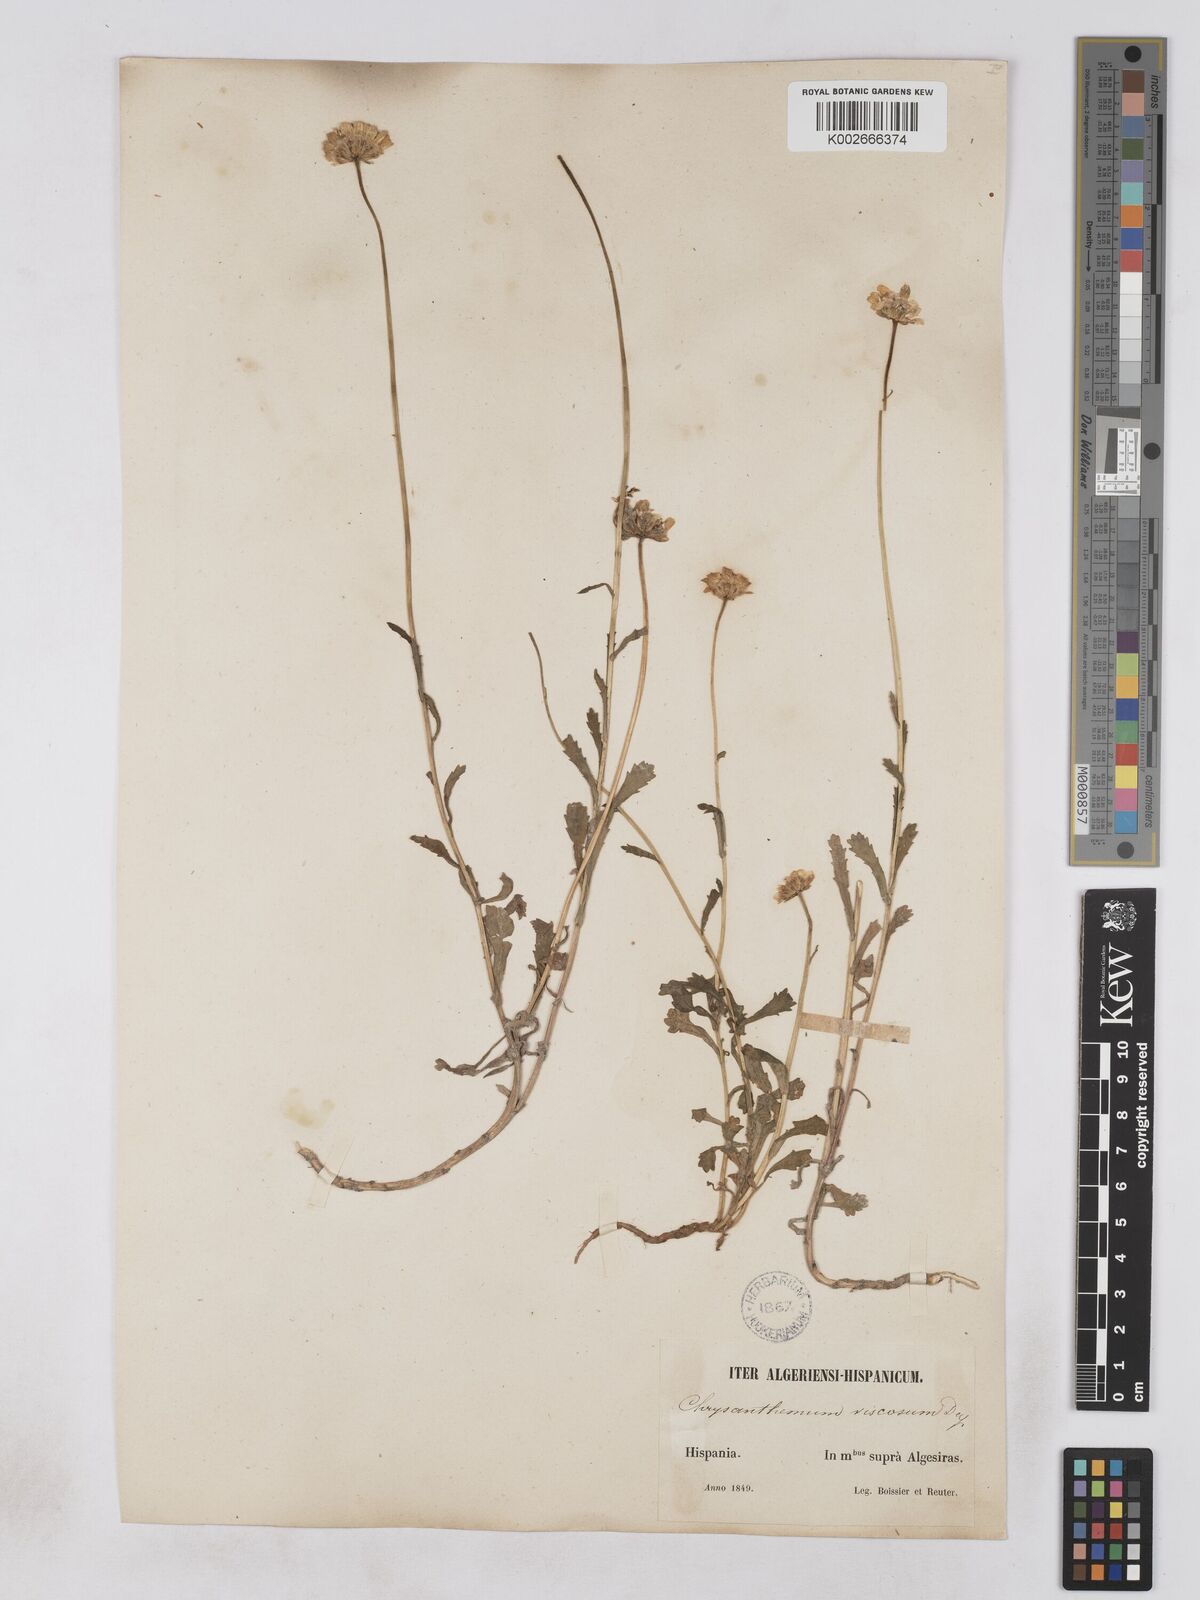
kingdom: Plantae
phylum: Tracheophyta
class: Magnoliopsida
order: Asterales
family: Asteraceae
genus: Heteranthemis
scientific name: Heteranthemis
